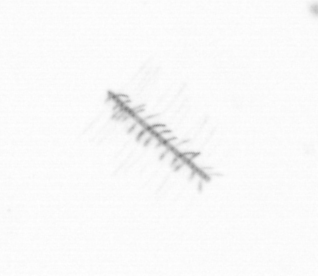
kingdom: Chromista
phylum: Ochrophyta
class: Bacillariophyceae
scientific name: Bacillariophyceae
